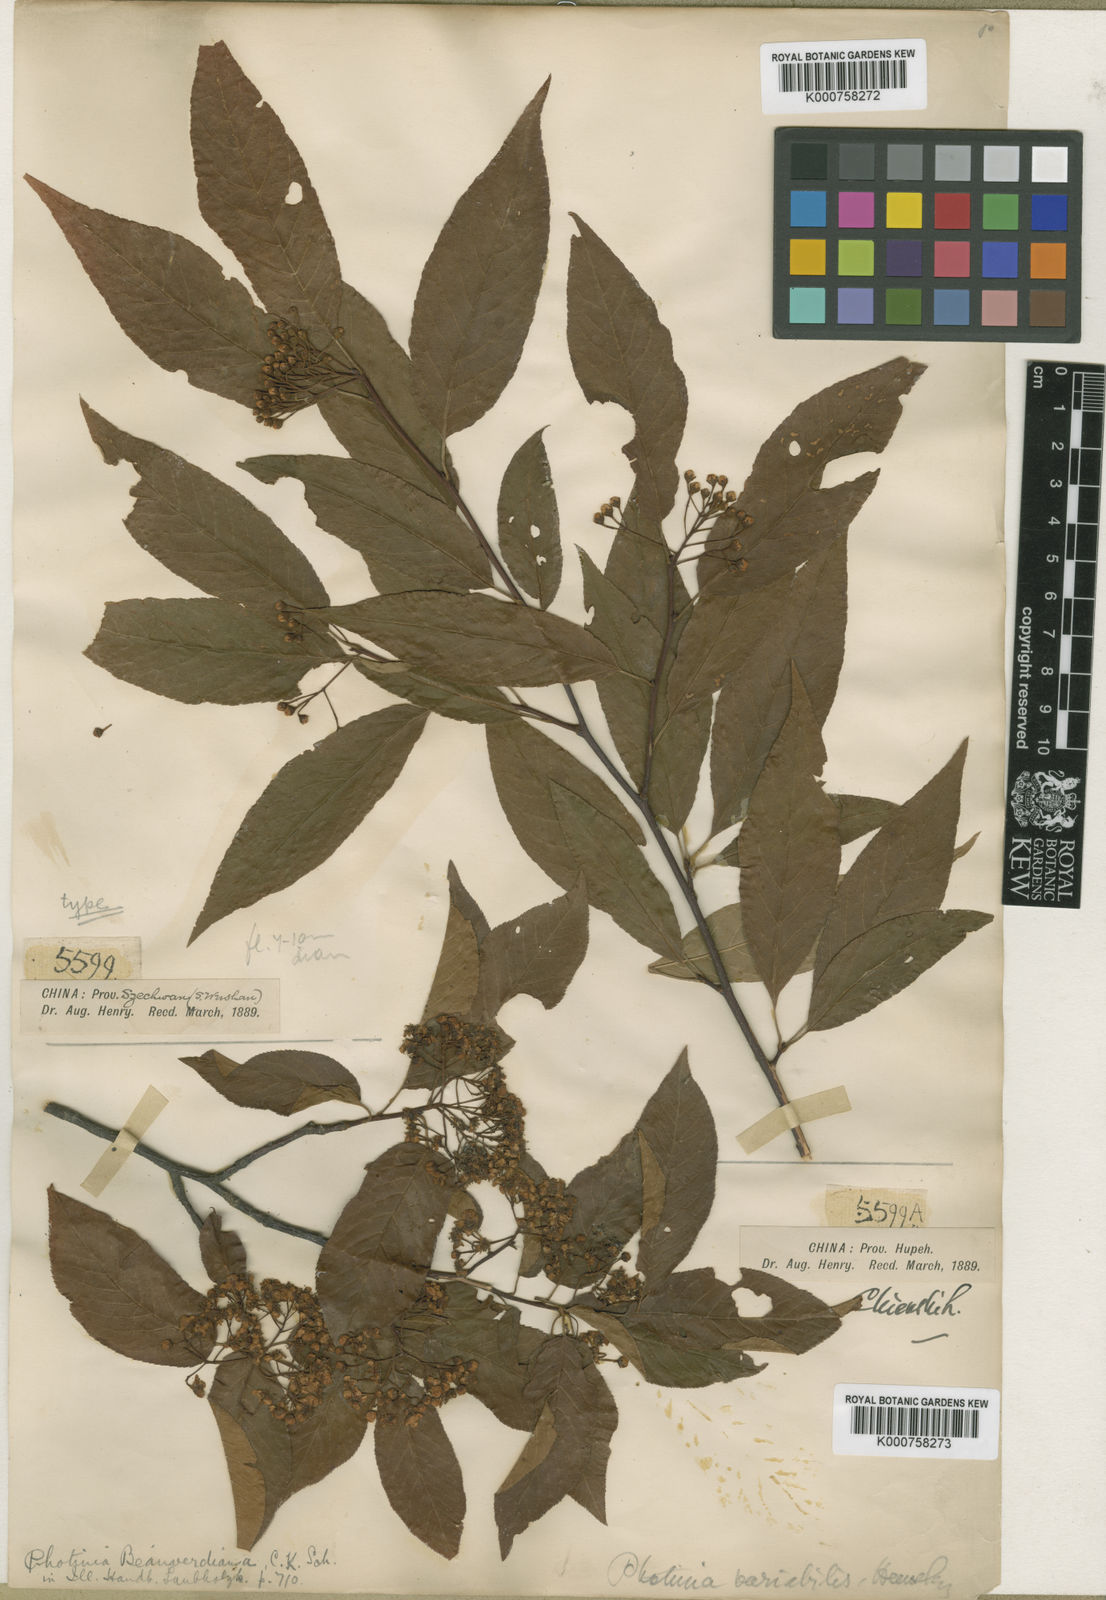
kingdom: Plantae
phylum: Tracheophyta
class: Magnoliopsida
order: Rosales
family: Rosaceae
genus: Pourthiaea
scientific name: Pourthiaea beauverdiana
